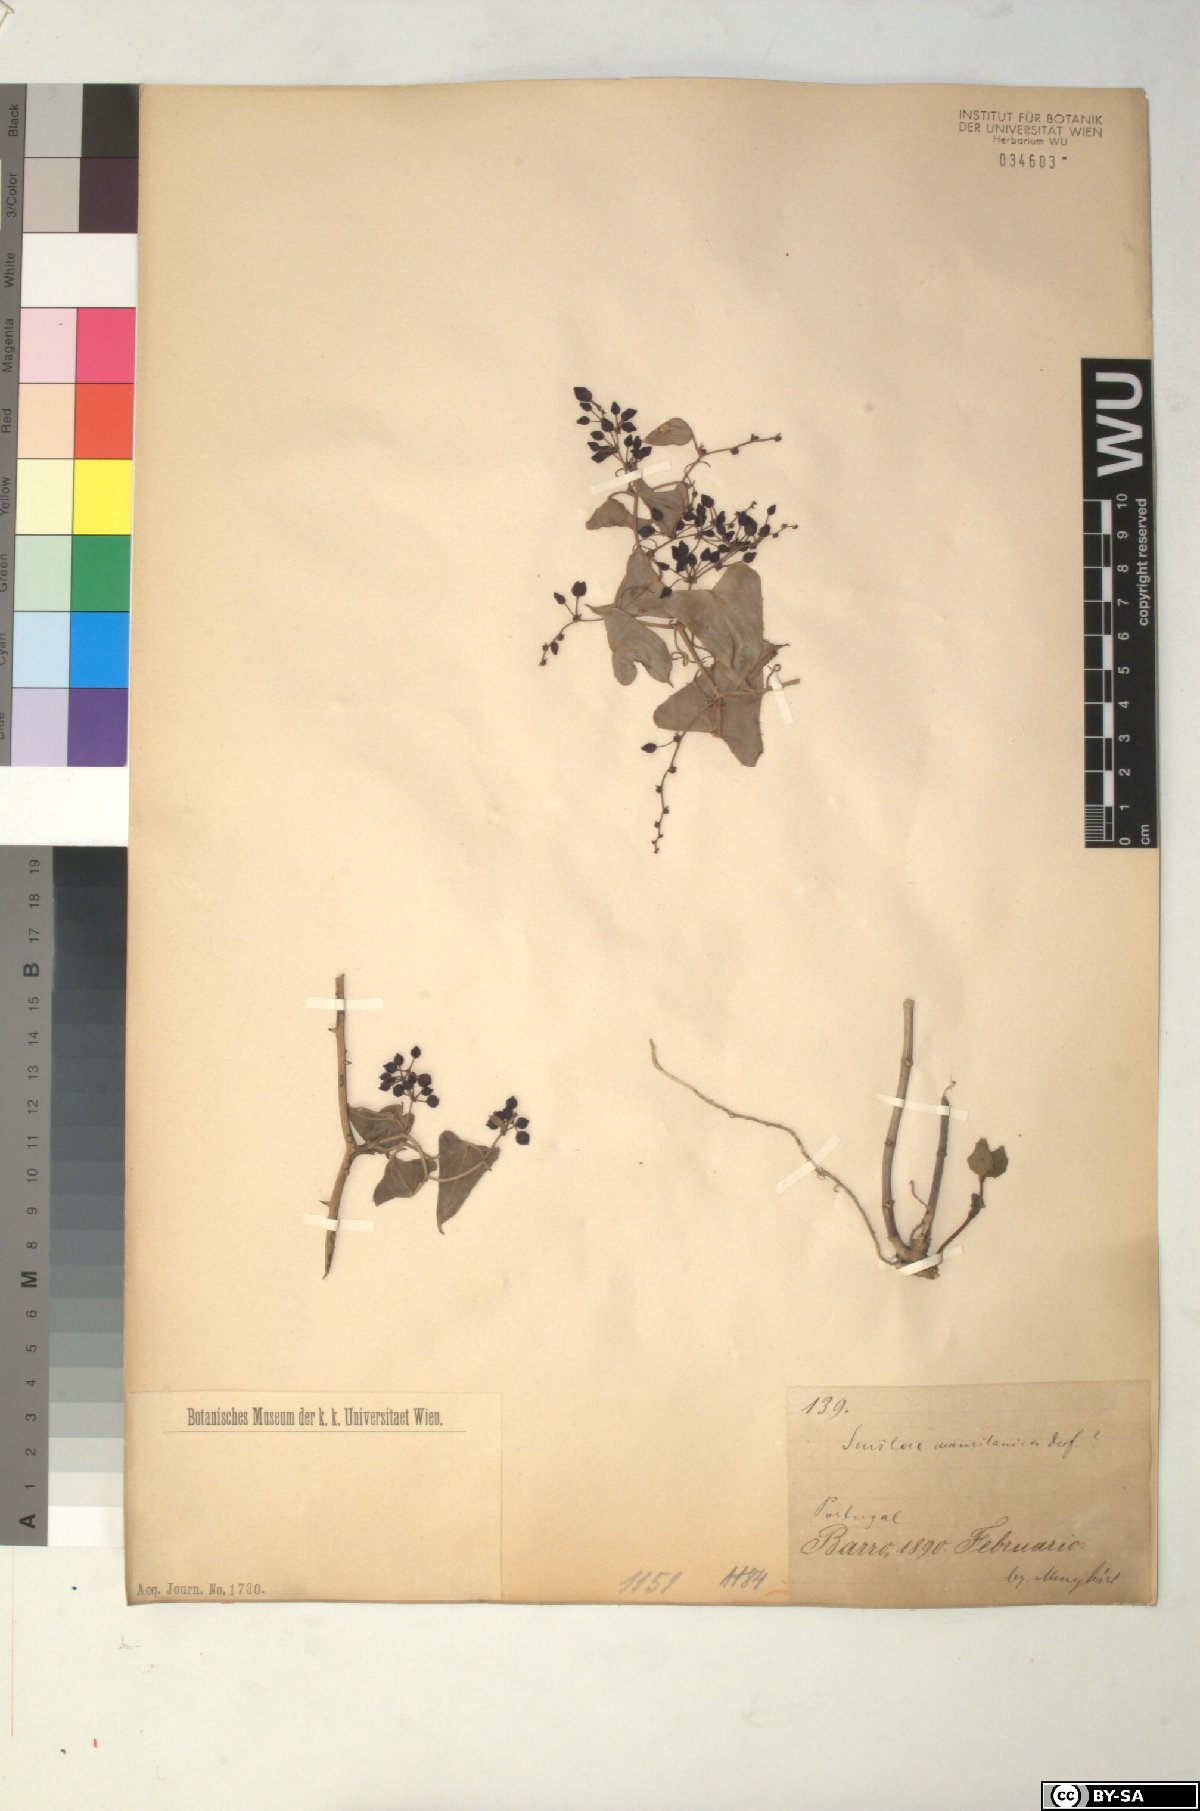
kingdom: Plantae
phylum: Tracheophyta
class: Liliopsida
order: Liliales
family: Smilacaceae
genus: Smilax
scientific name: Smilax
